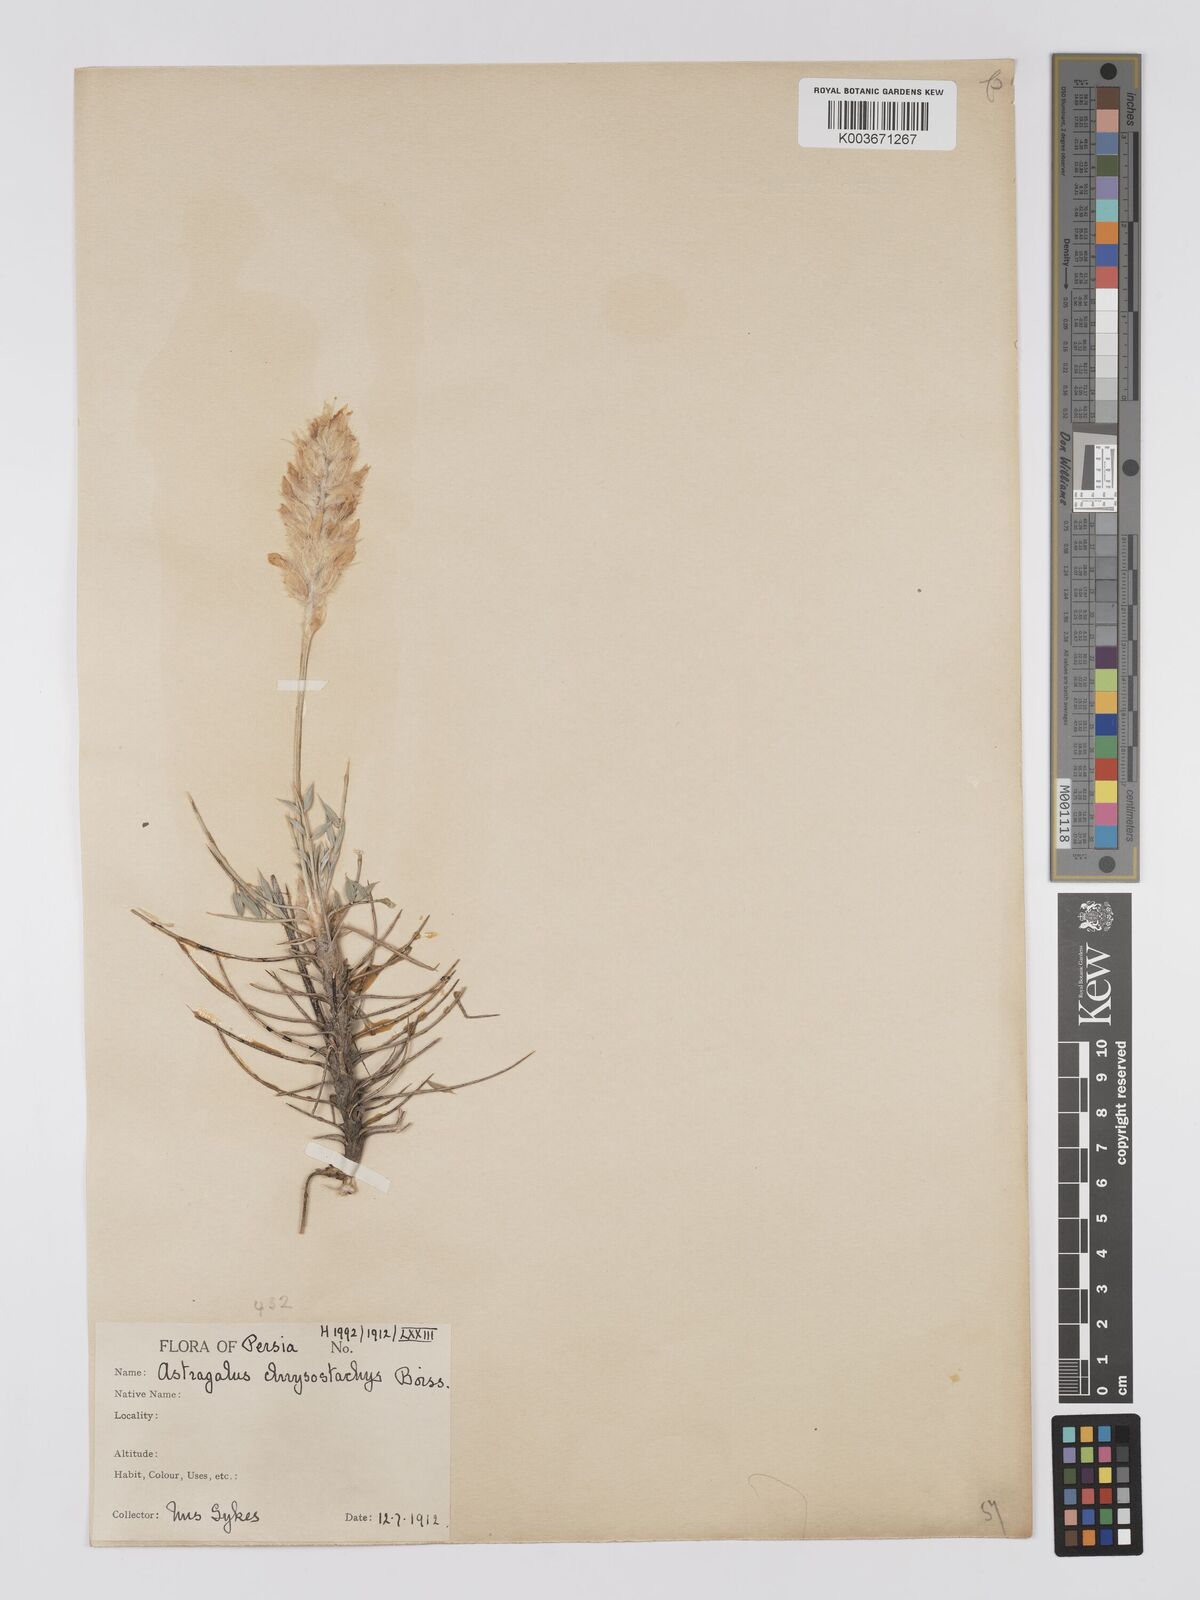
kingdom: Plantae
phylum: Tracheophyta
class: Magnoliopsida
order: Fabales
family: Fabaceae
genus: Astragalus
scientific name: Astragalus chrysostachys
